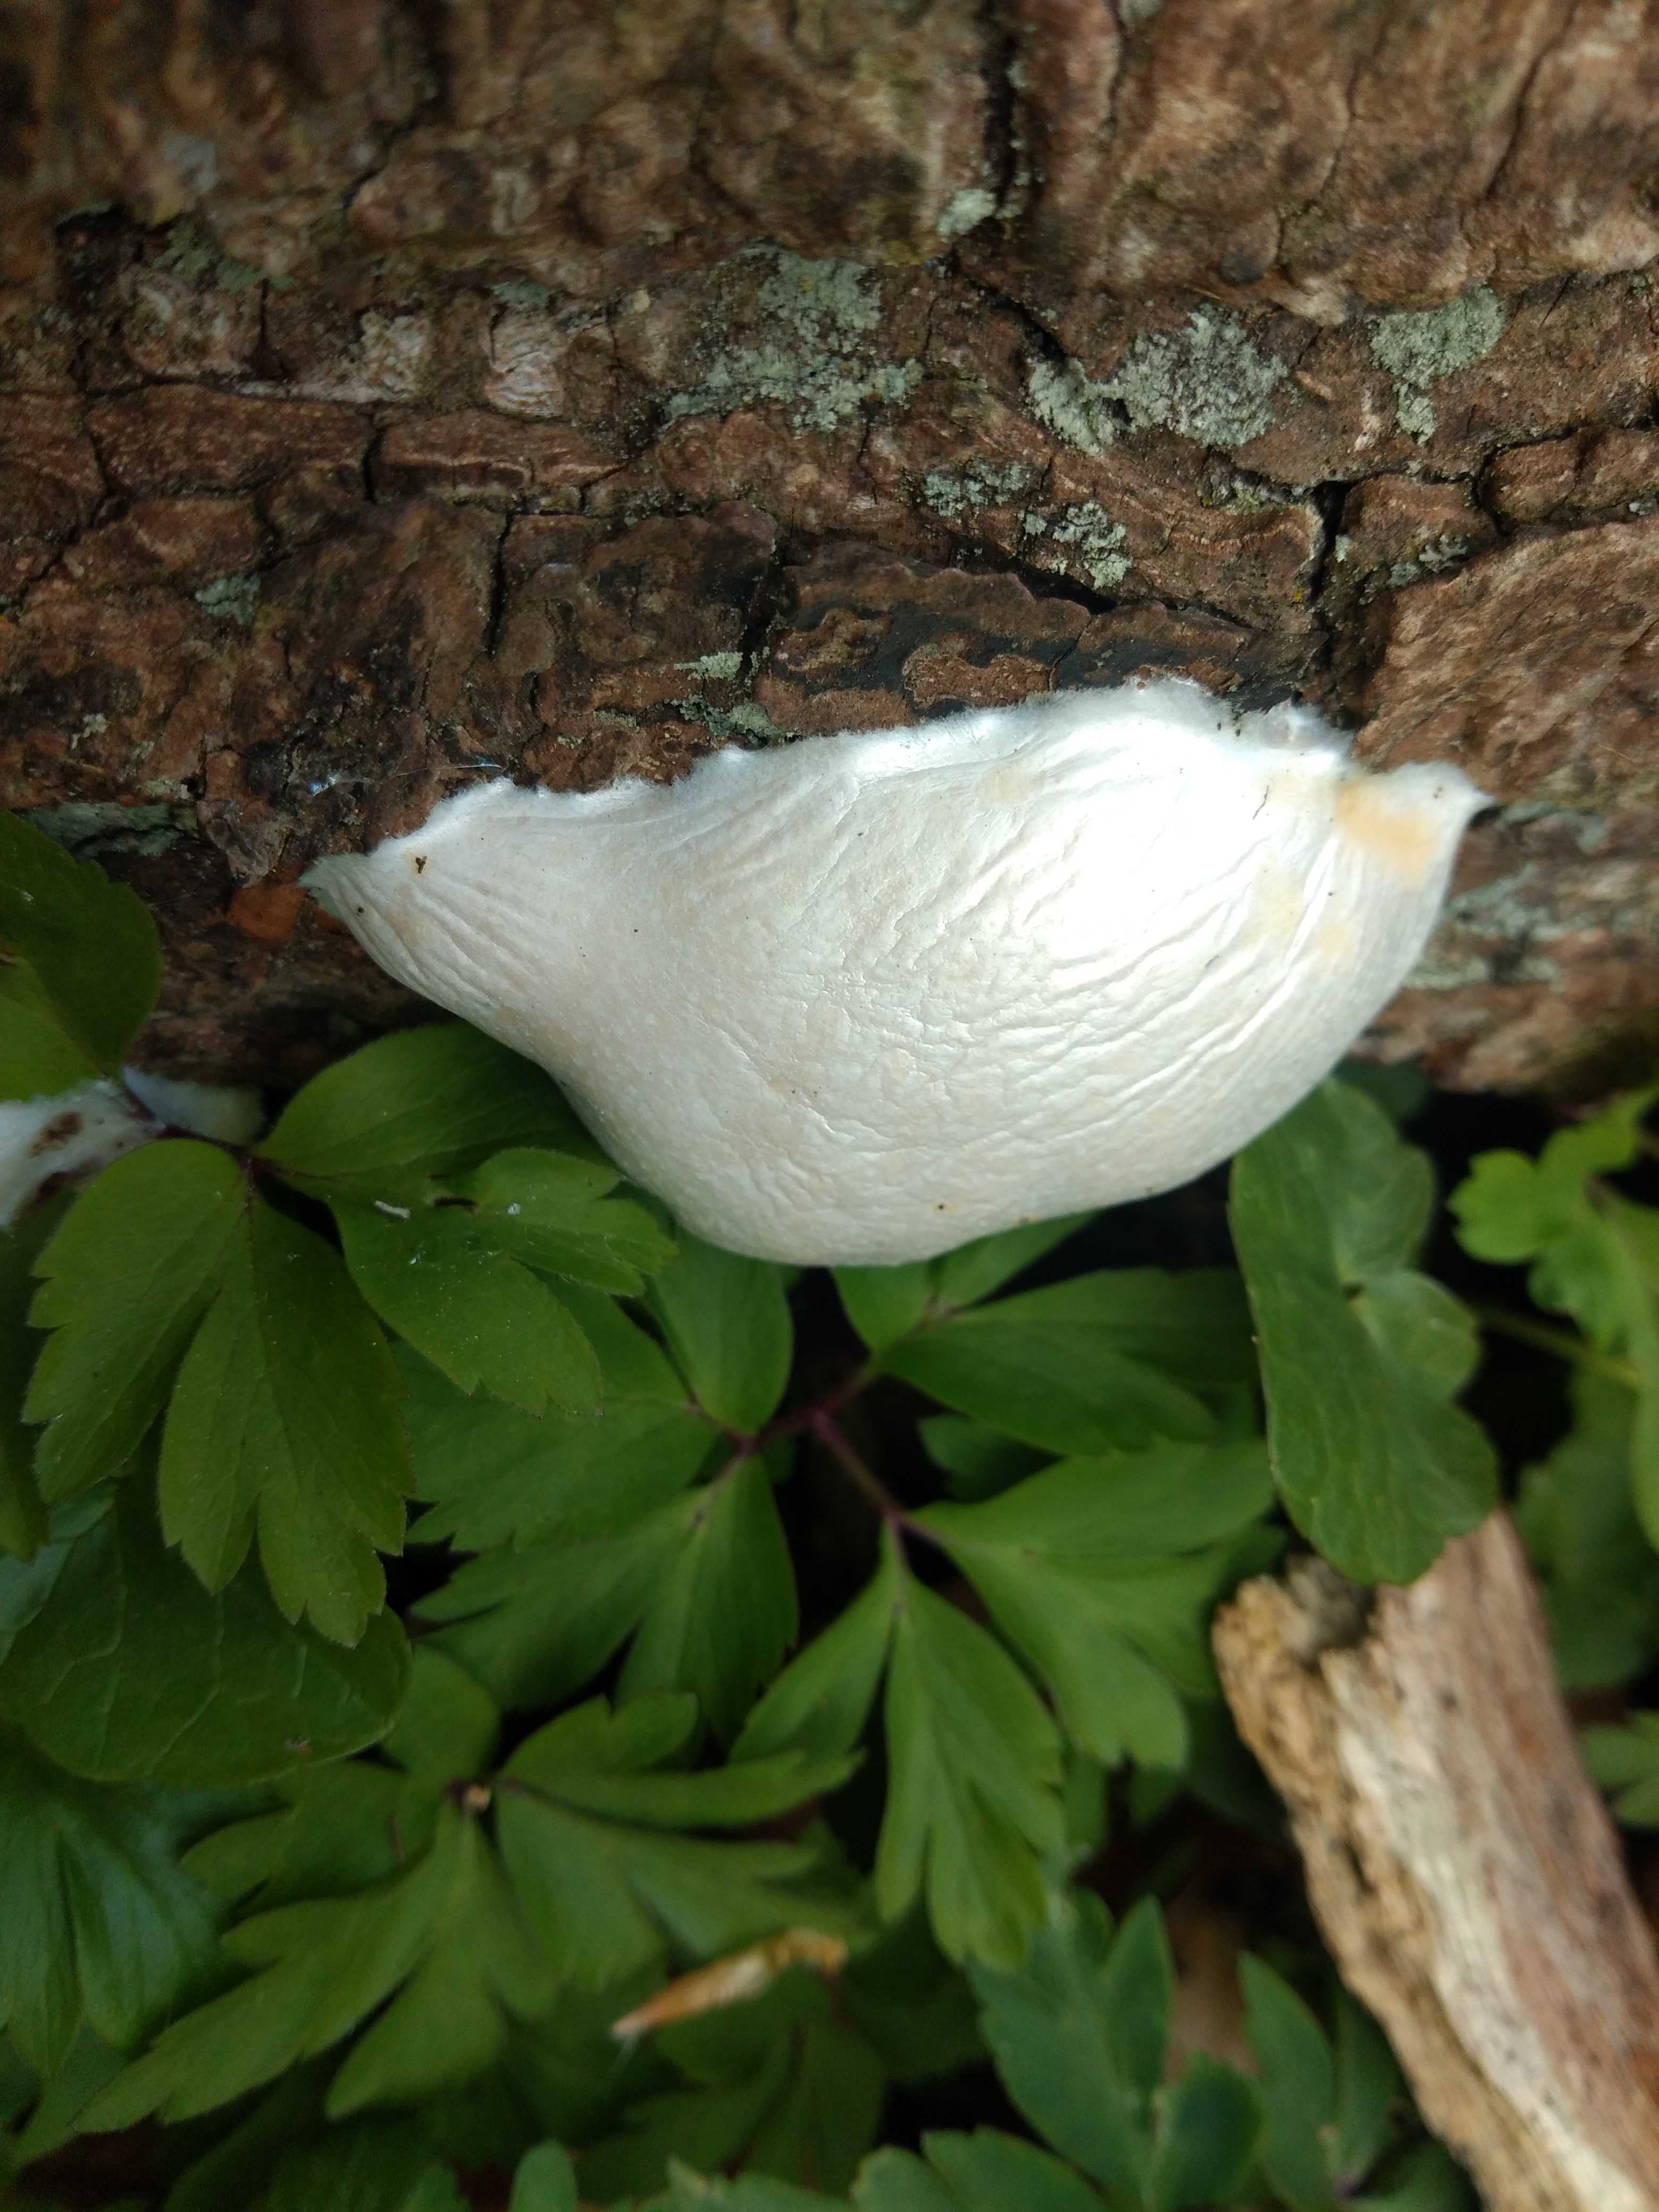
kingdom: Protozoa
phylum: Mycetozoa
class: Myxomycetes
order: Cribrariales
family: Tubiferaceae
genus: Reticularia
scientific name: Reticularia lycoperdon
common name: skinnende støvpude
